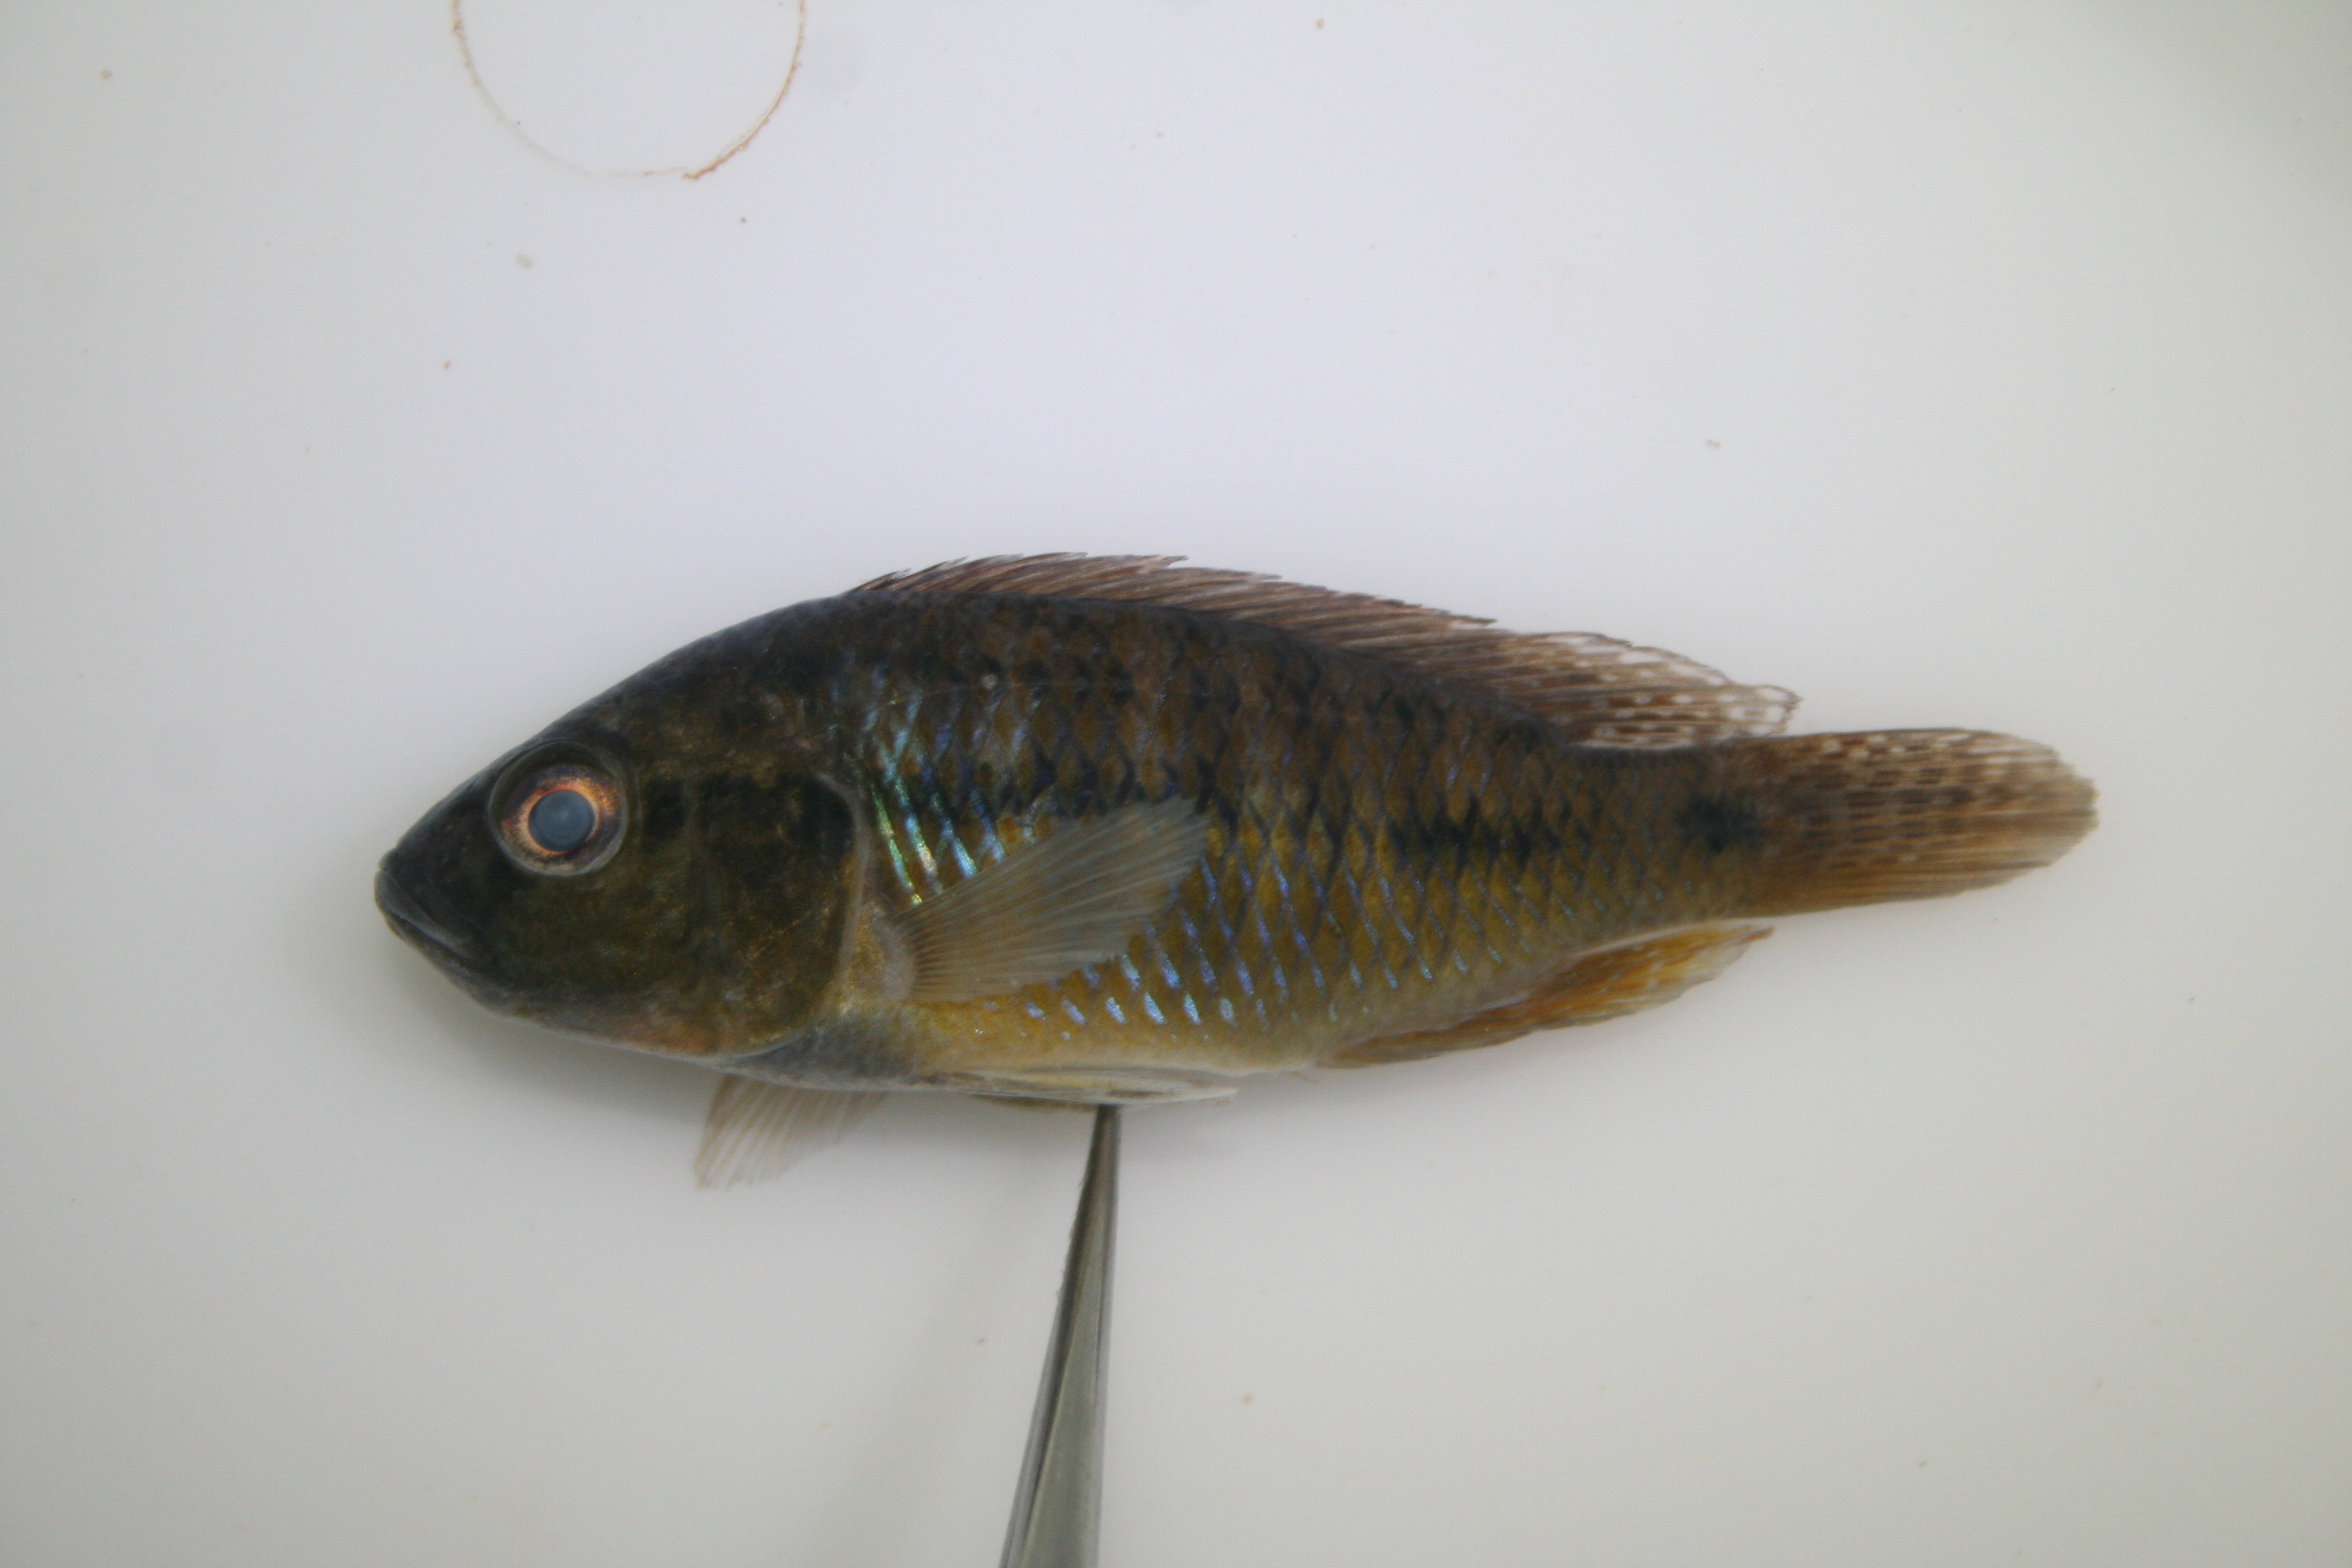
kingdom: Animalia
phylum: Chordata
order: Perciformes
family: Cichlidae
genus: Pseudocrenilabrus
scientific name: Pseudocrenilabrus philander
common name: Southern mouthbrooder
